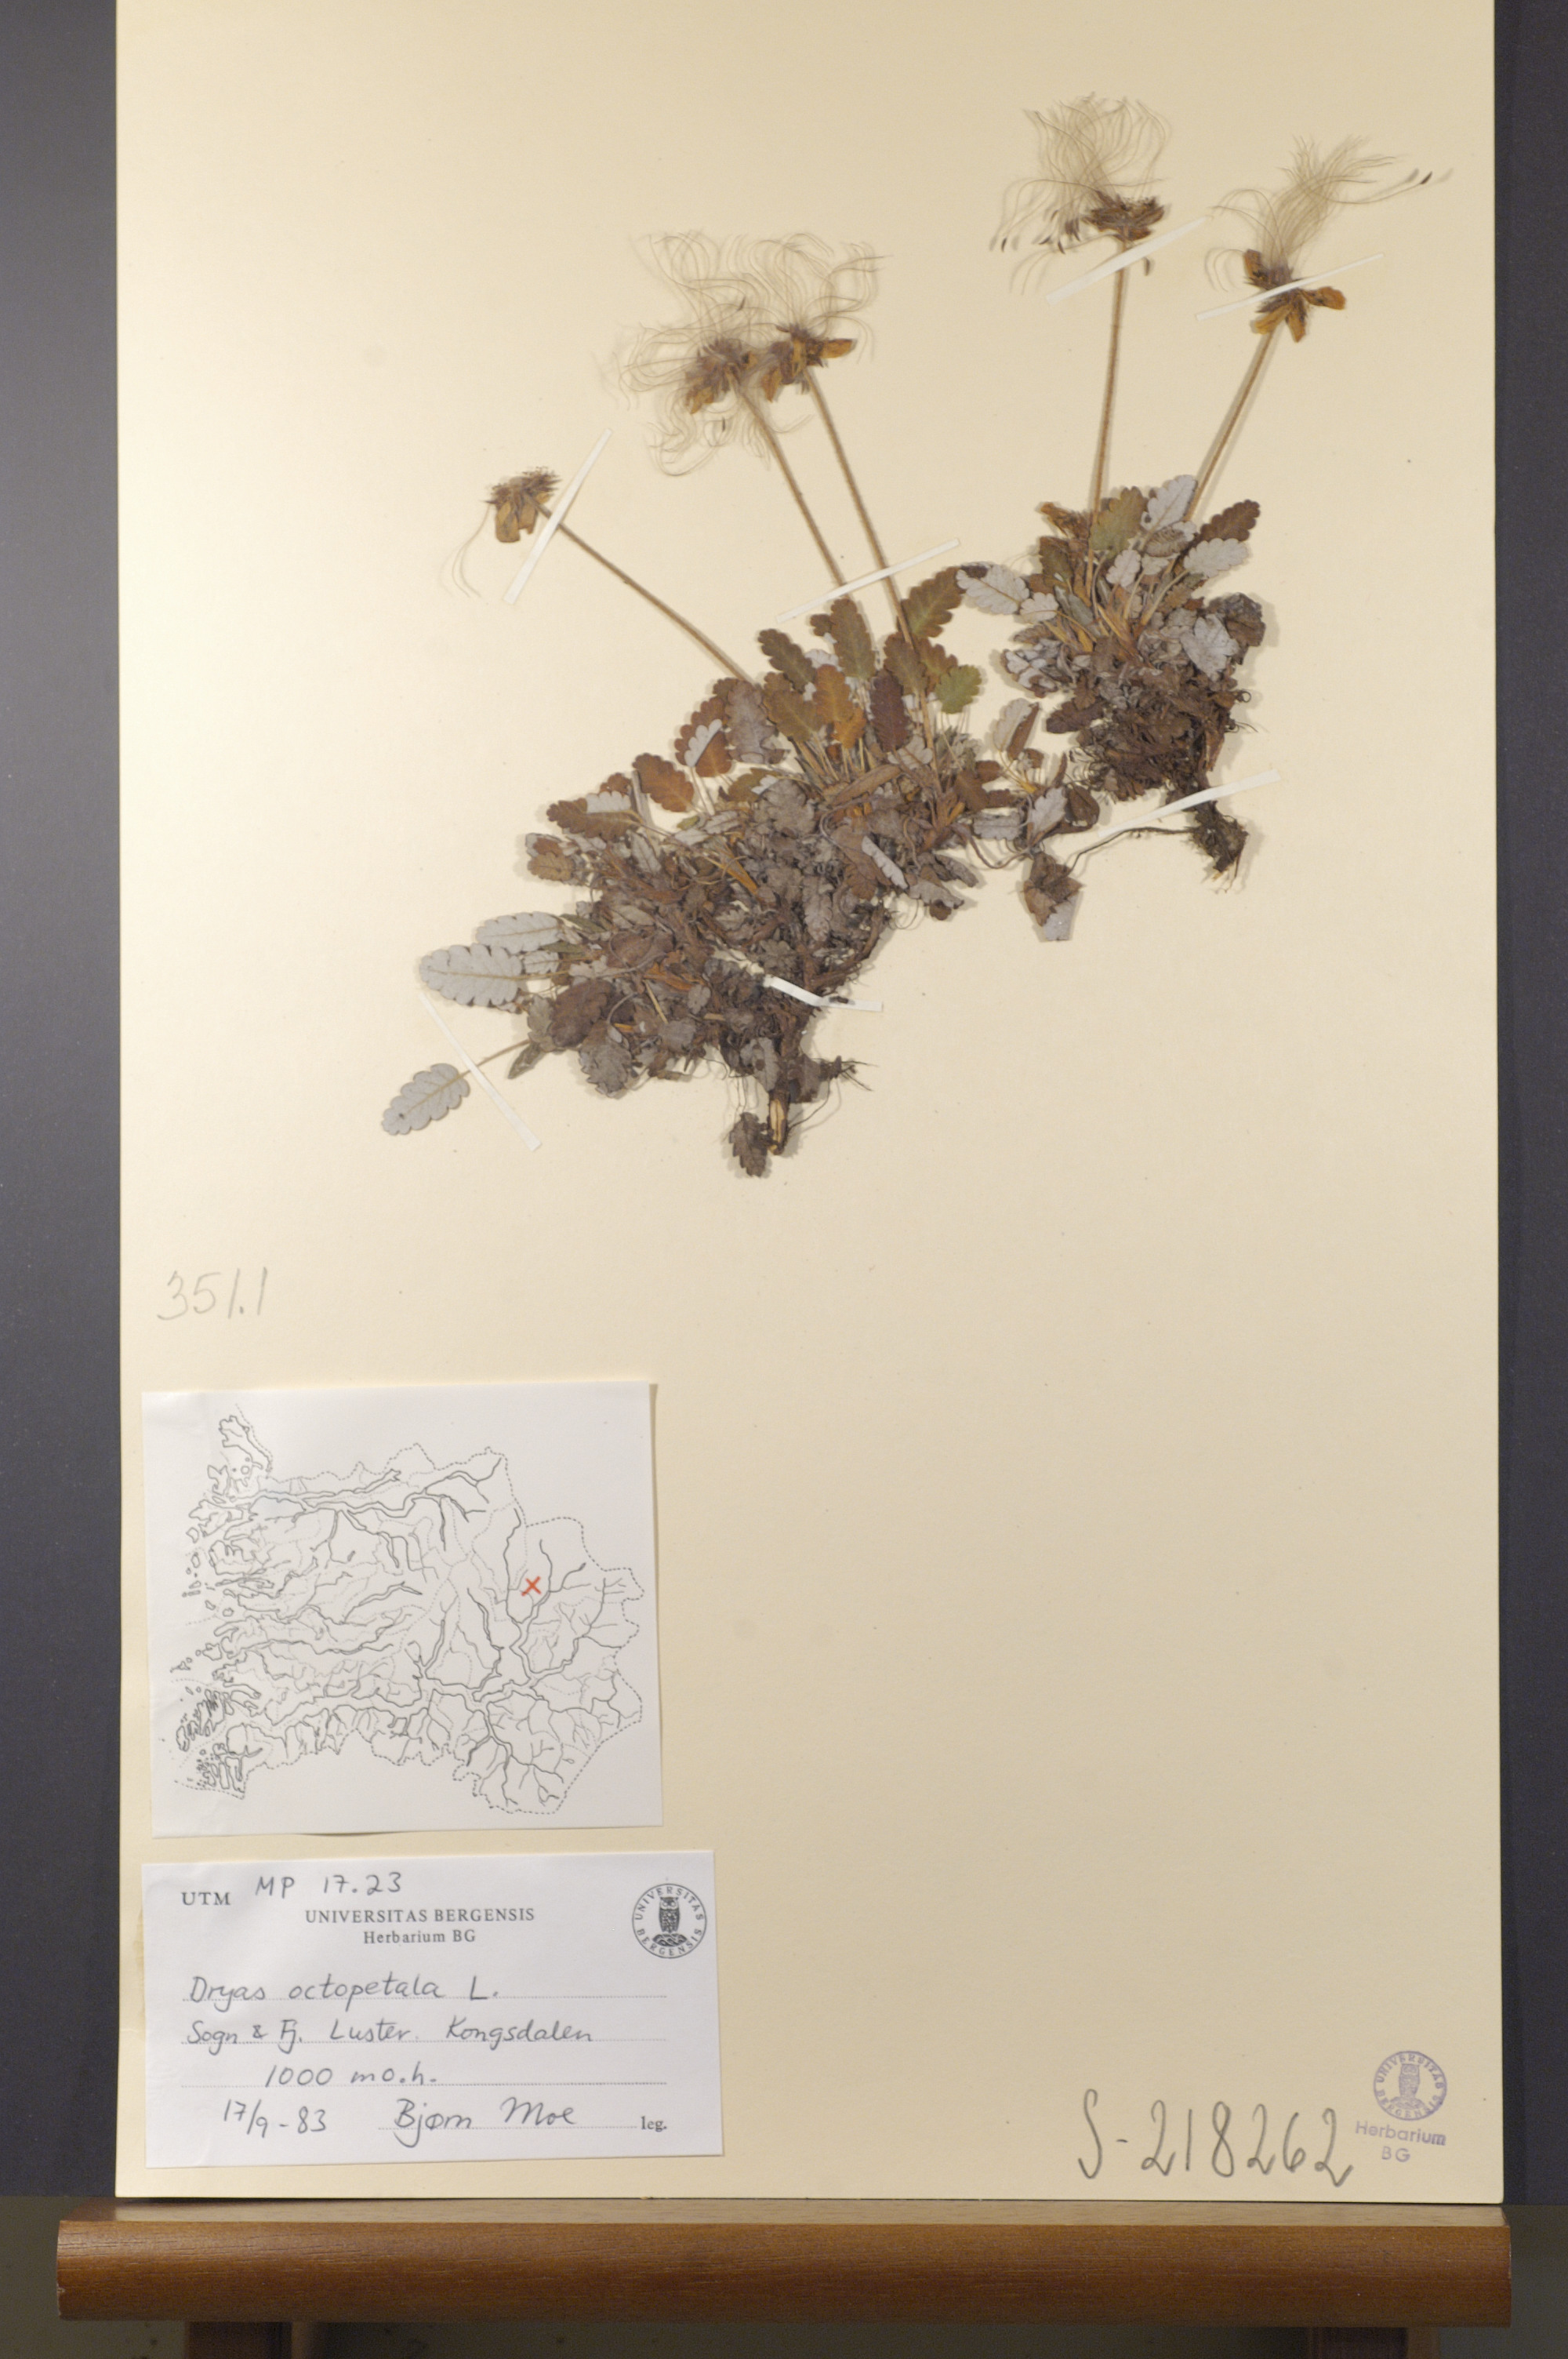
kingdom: Plantae
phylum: Tracheophyta
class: Magnoliopsida
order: Rosales
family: Rosaceae
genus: Dryas
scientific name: Dryas octopetala
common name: Eight-petal mountain-avens
